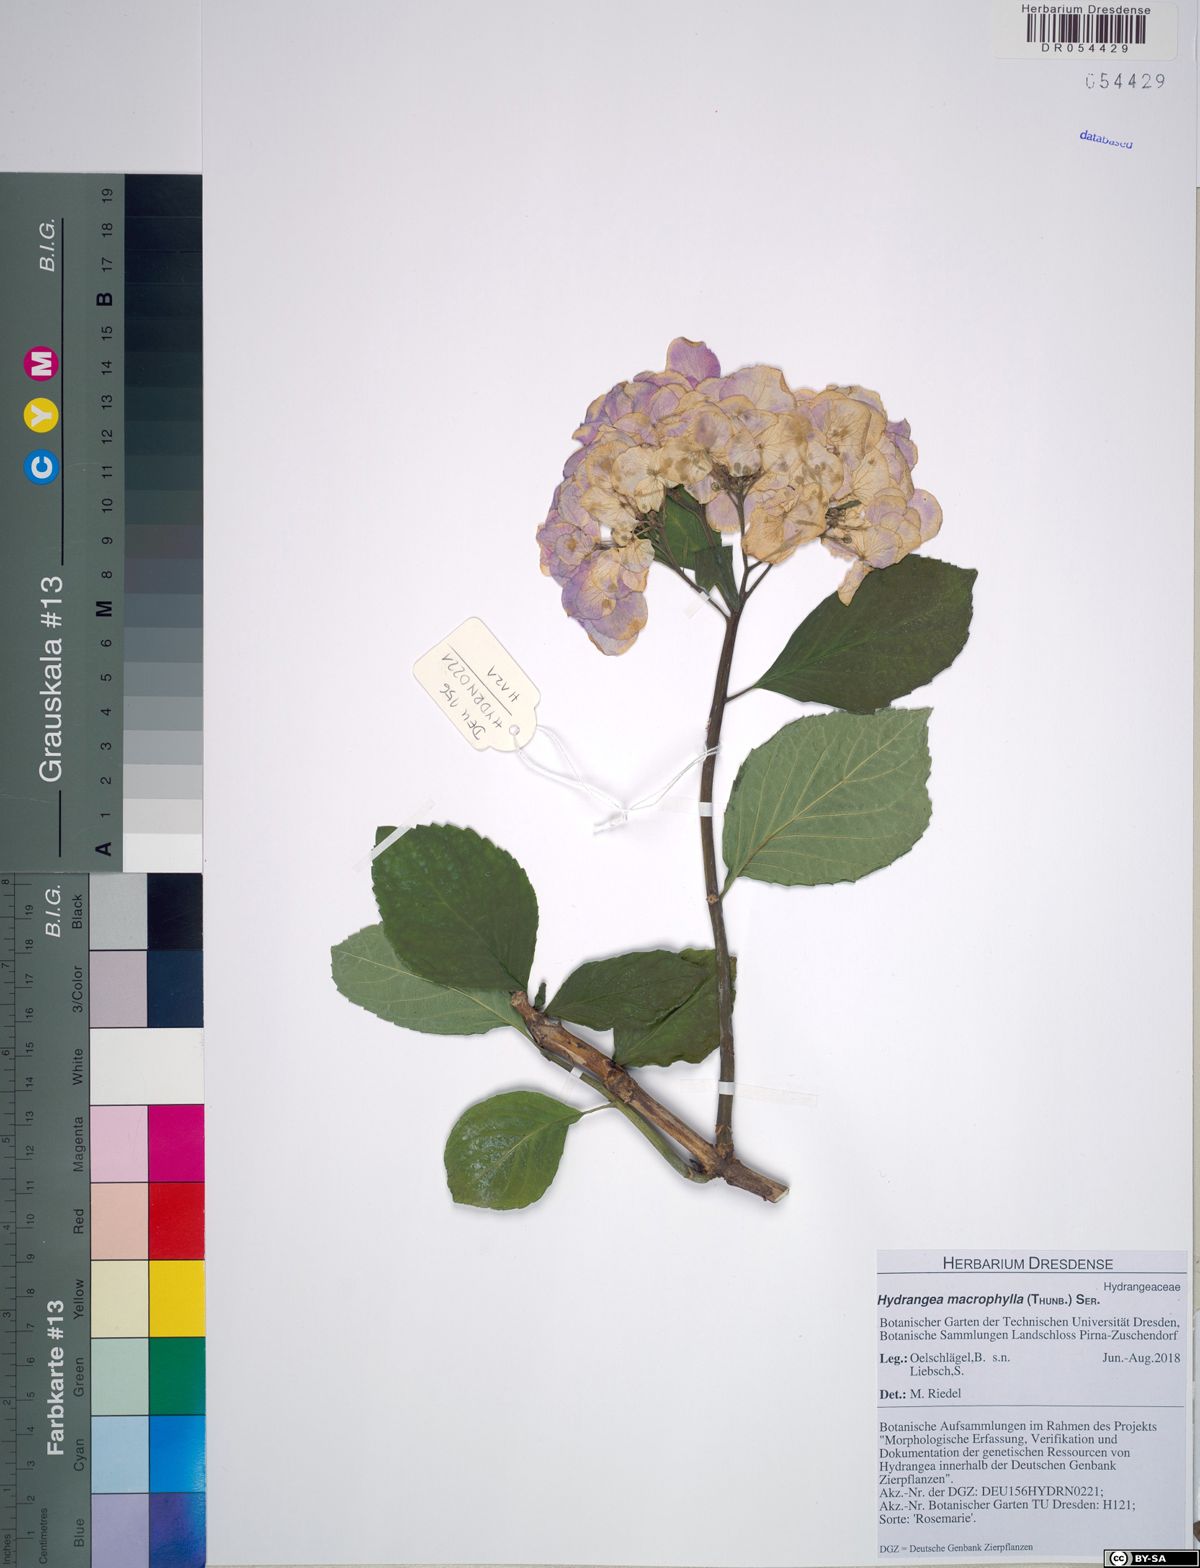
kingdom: Plantae
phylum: Tracheophyta
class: Magnoliopsida
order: Cornales
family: Hydrangeaceae
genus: Hydrangea
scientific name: Hydrangea macrophylla
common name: Hydrangea
